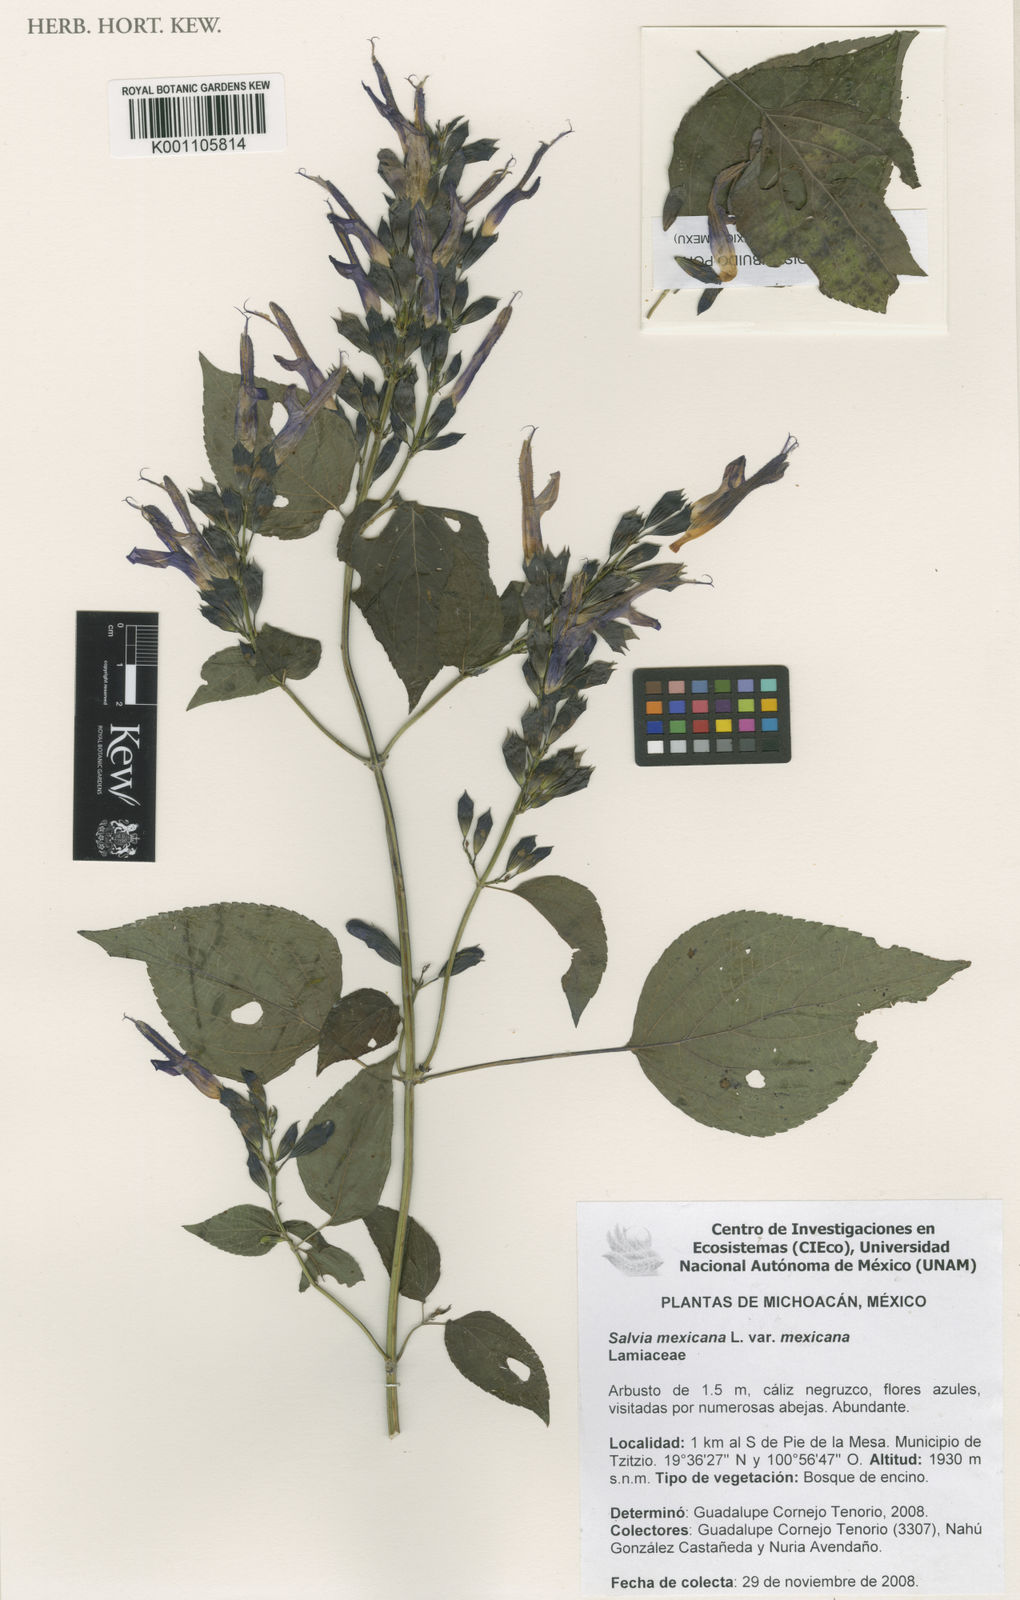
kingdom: Plantae
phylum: Tracheophyta
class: Magnoliopsida
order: Lamiales
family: Lamiaceae
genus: Salvia
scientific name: Salvia mexicana
